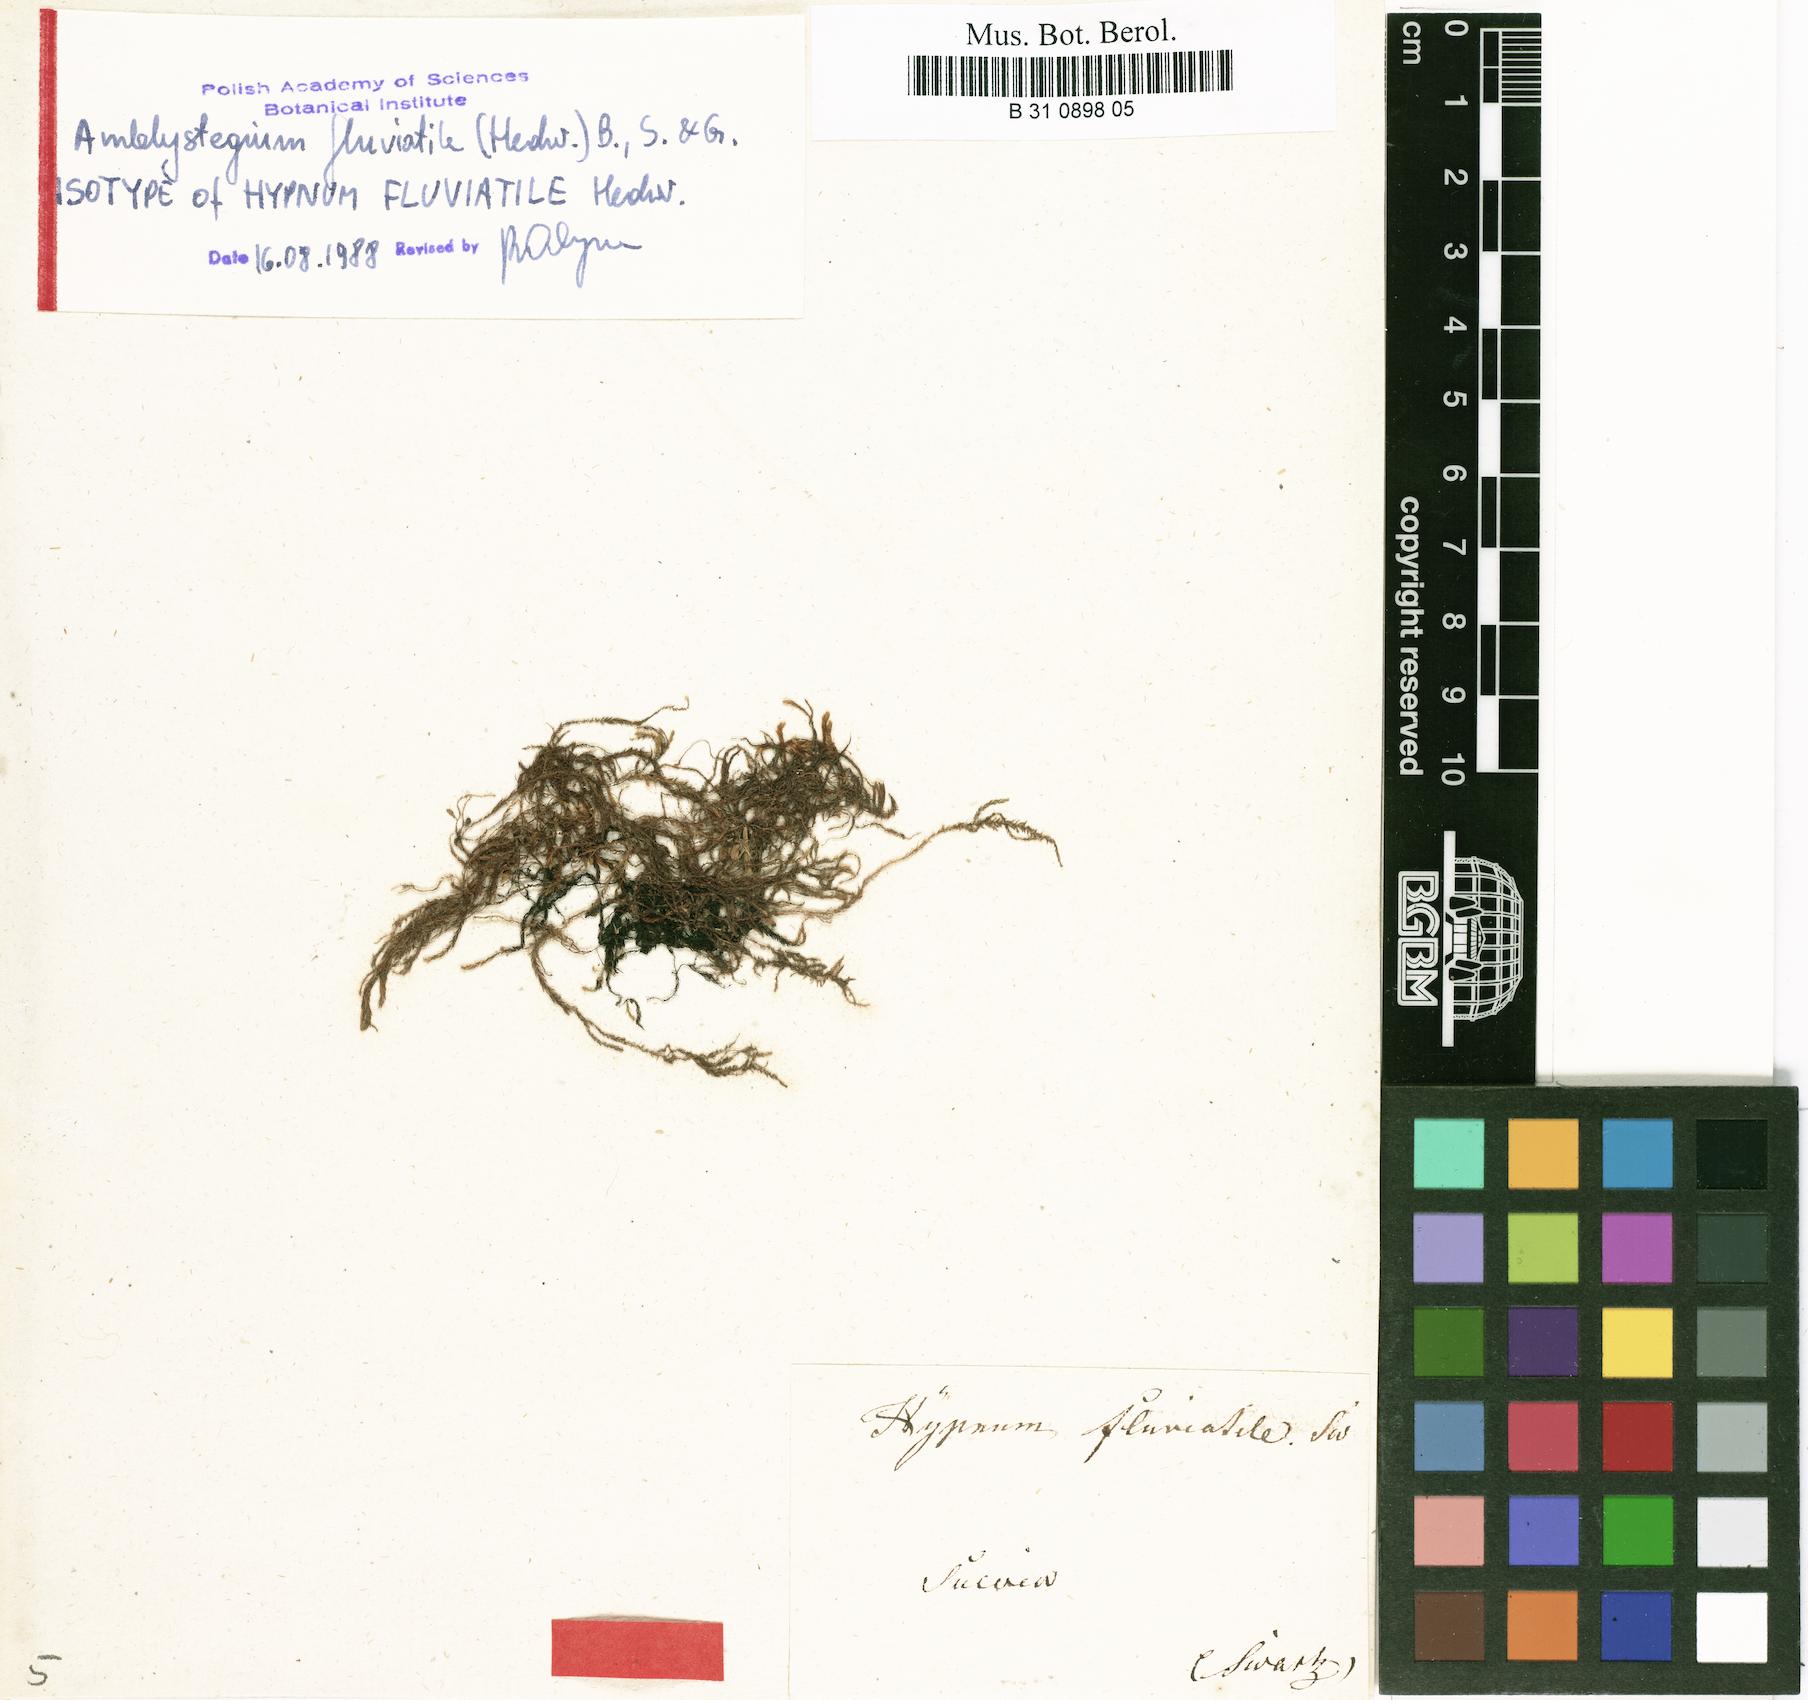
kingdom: Plantae
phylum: Bryophyta
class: Bryopsida
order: Hypnales
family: Amblystegiaceae
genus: Hygroamblystegium
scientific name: Hygroamblystegium fluviatile
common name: Brook-side feather-moss
